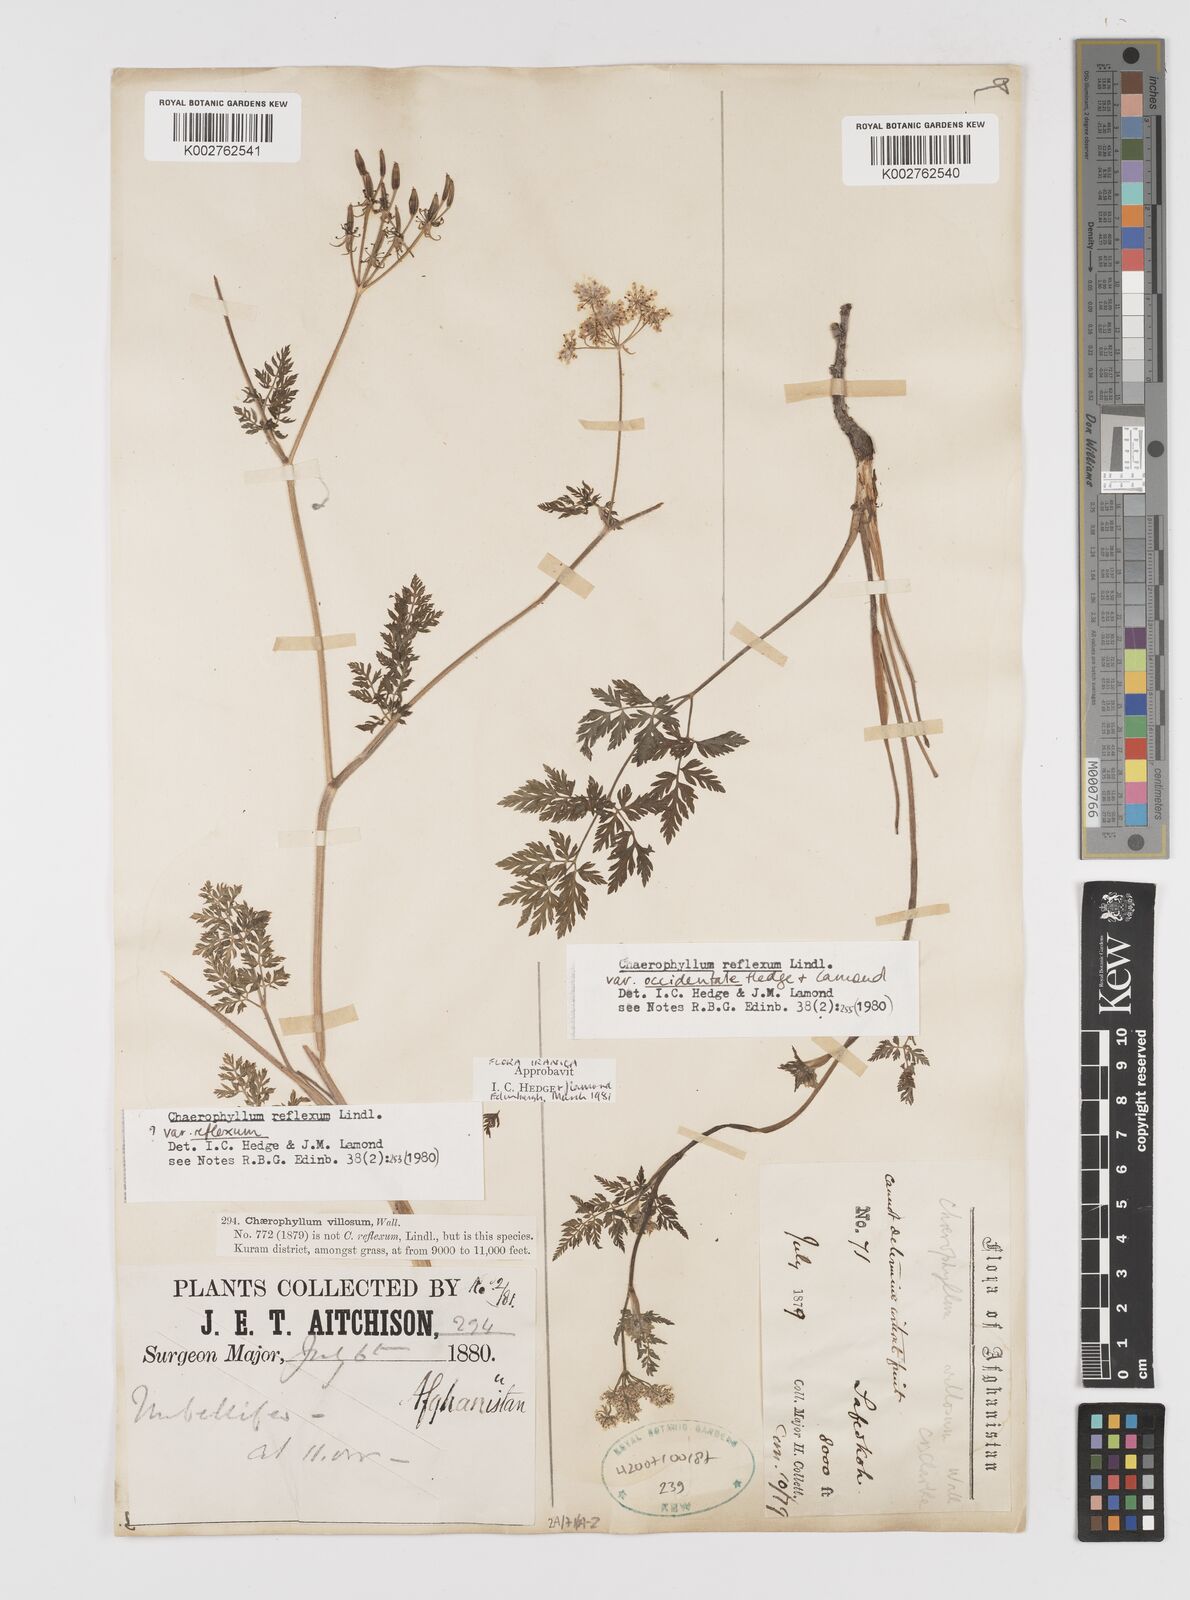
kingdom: Plantae
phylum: Tracheophyta
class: Magnoliopsida
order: Apiales
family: Apiaceae
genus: Chaerophyllum
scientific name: Chaerophyllum reflexum
